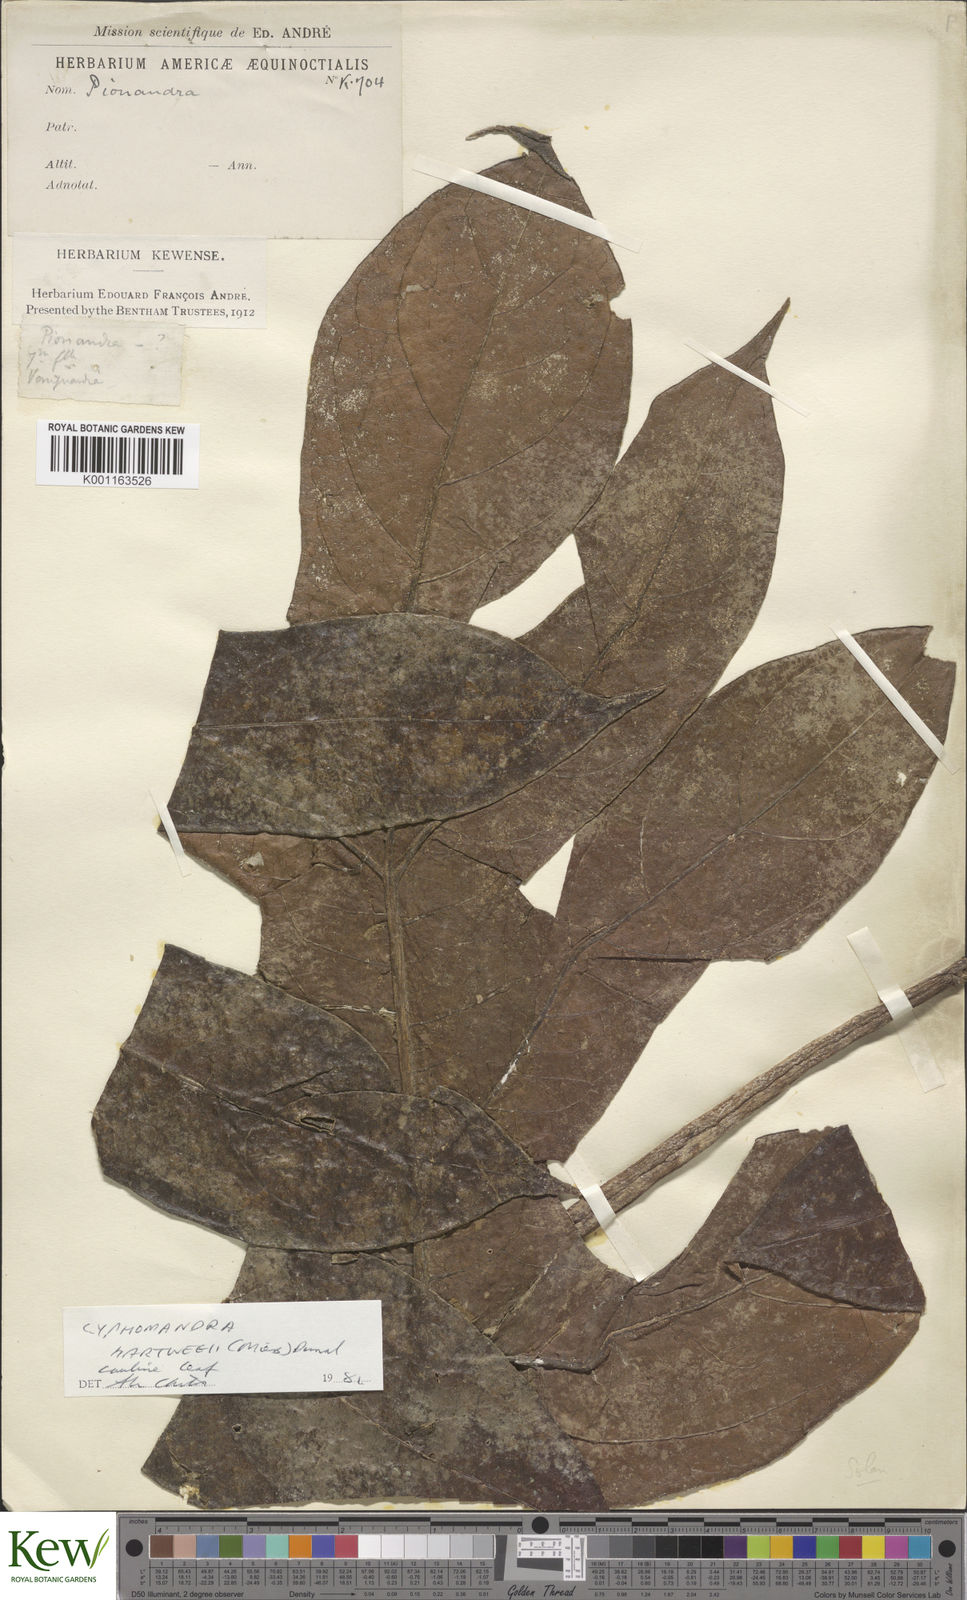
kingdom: Plantae
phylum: Tracheophyta
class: Magnoliopsida
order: Solanales
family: Solanaceae
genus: Solanum
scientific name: Solanum splendens
